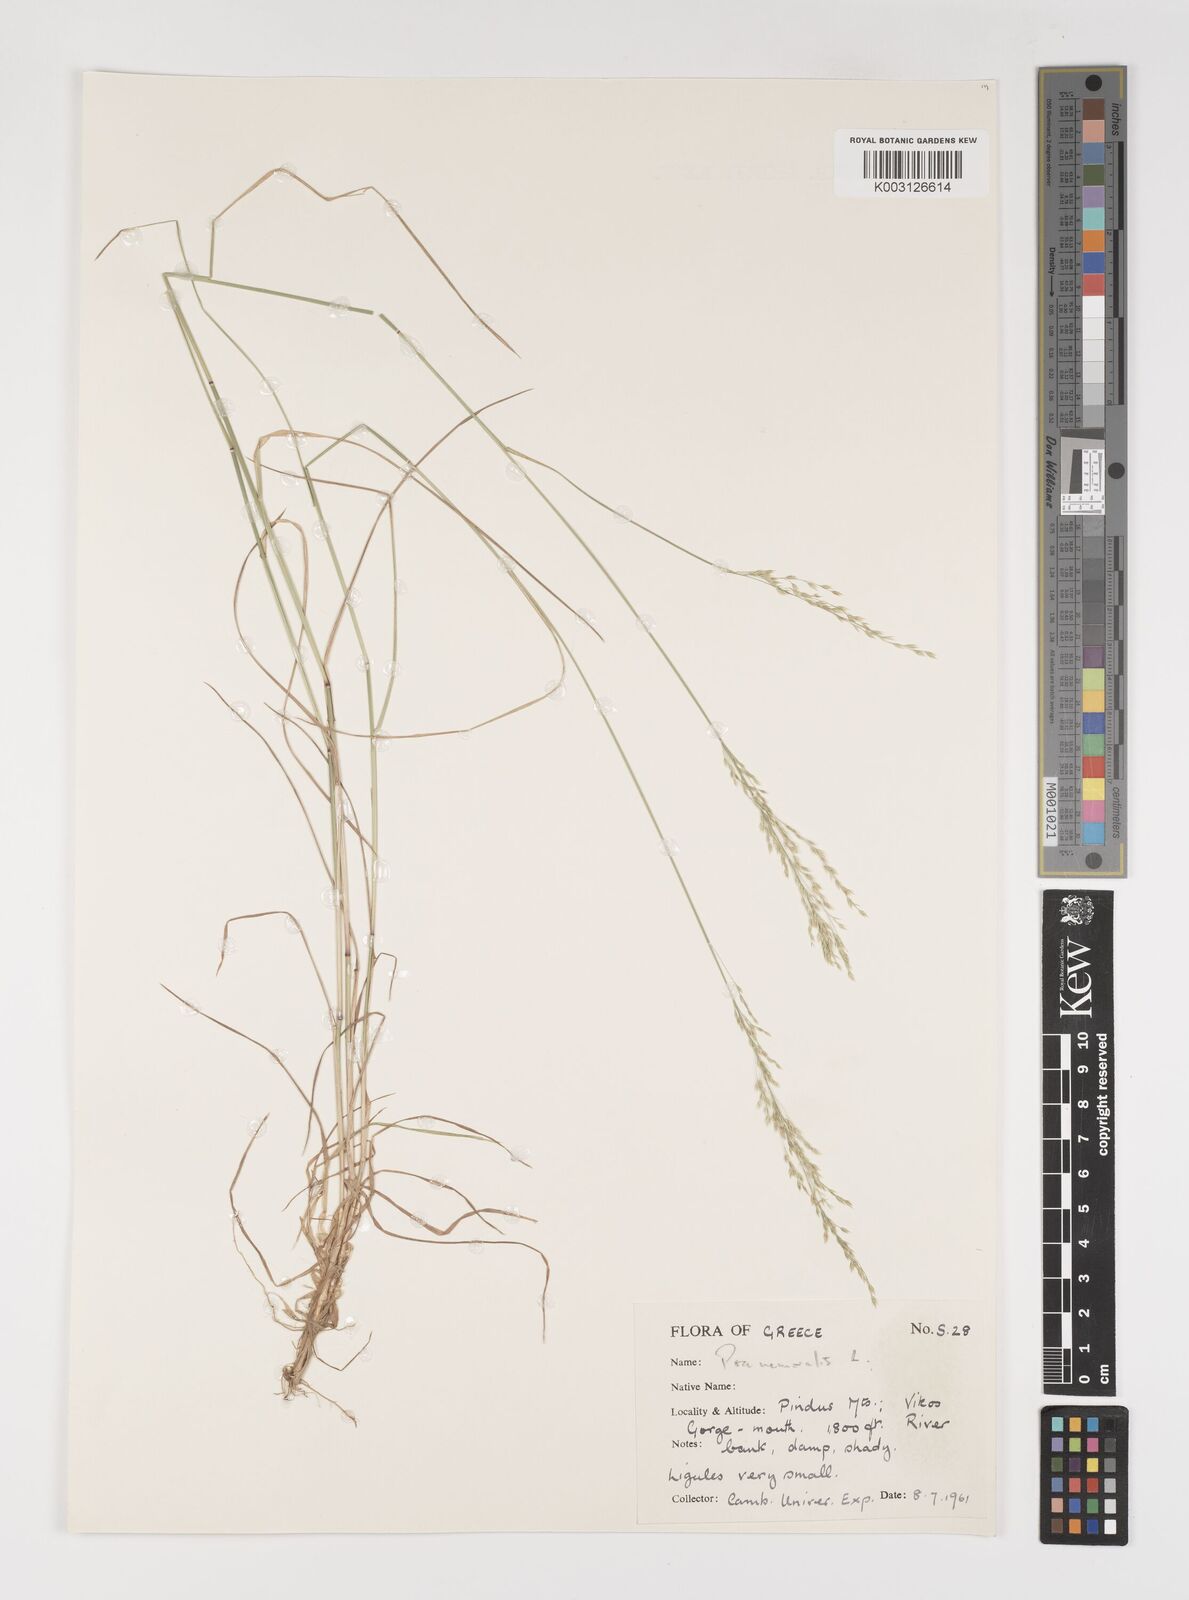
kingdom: Plantae
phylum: Tracheophyta
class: Liliopsida
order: Poales
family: Poaceae
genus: Poa
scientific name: Poa nemoralis
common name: Wood bluegrass
